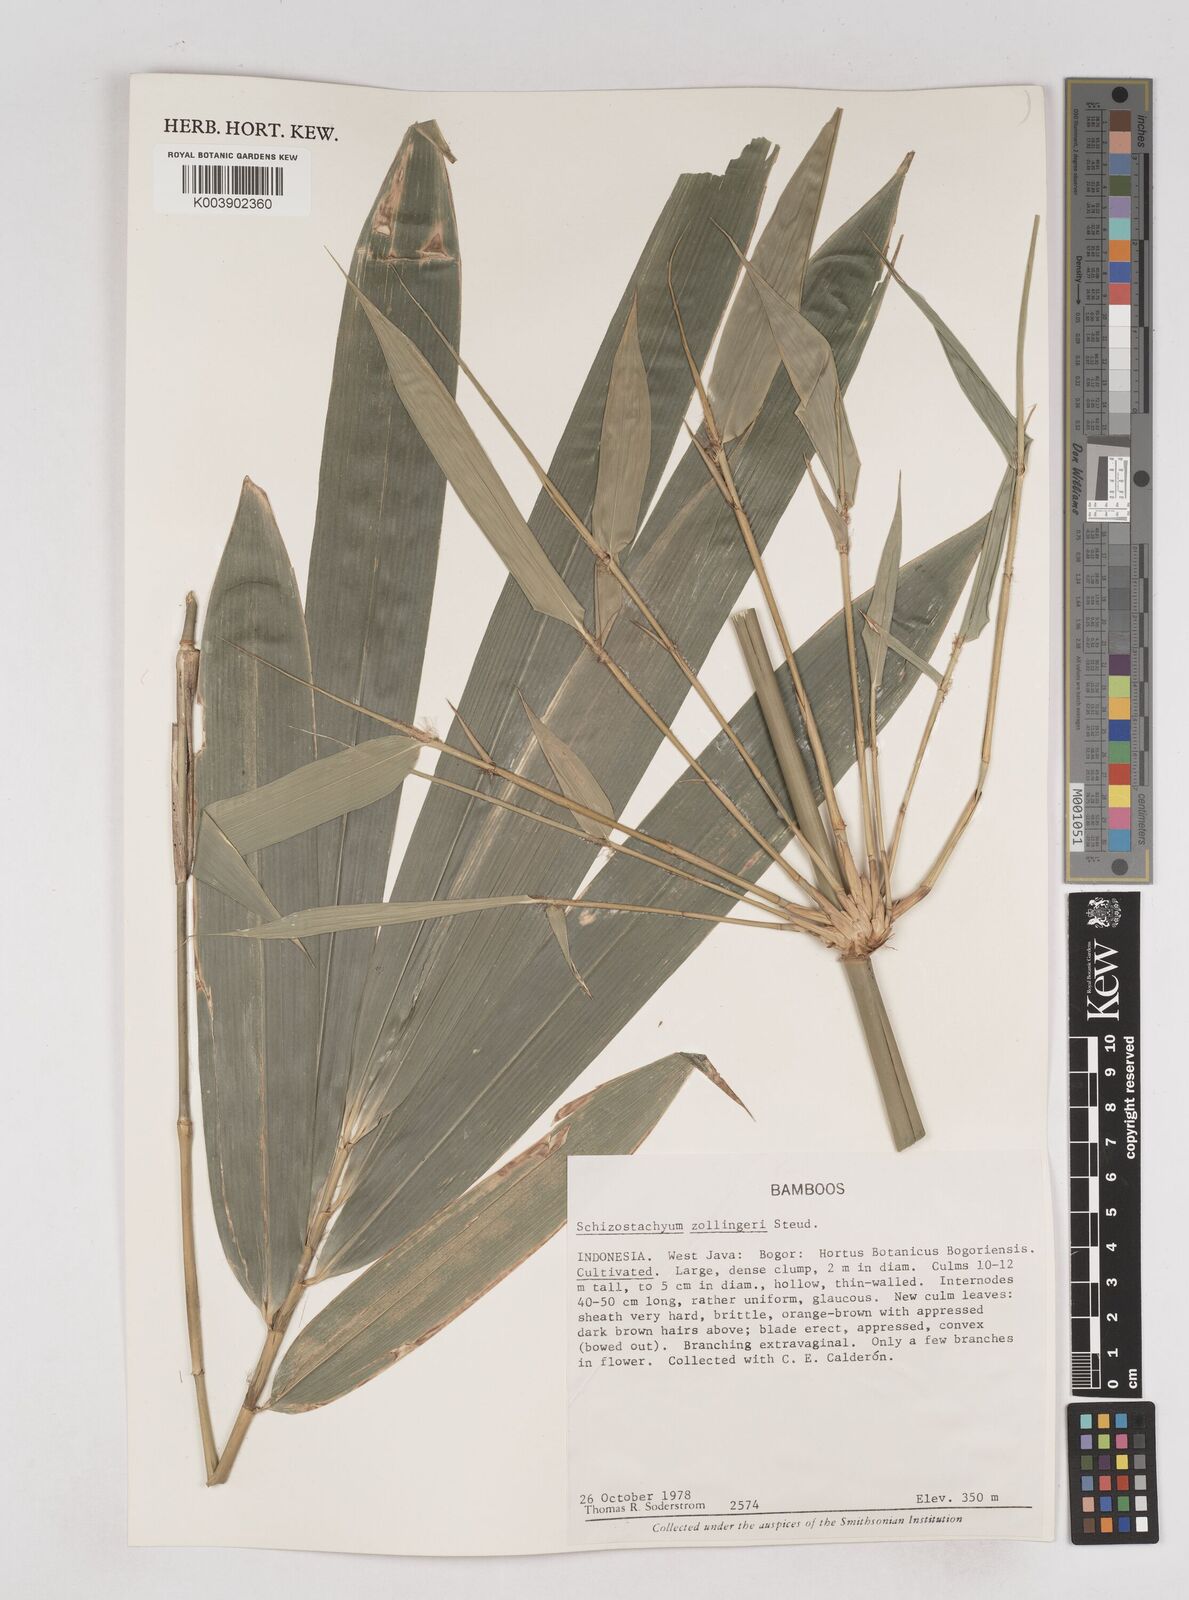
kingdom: Plantae
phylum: Tracheophyta
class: Liliopsida
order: Poales
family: Poaceae
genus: Schizostachyum
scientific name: Schizostachyum zollingeri
